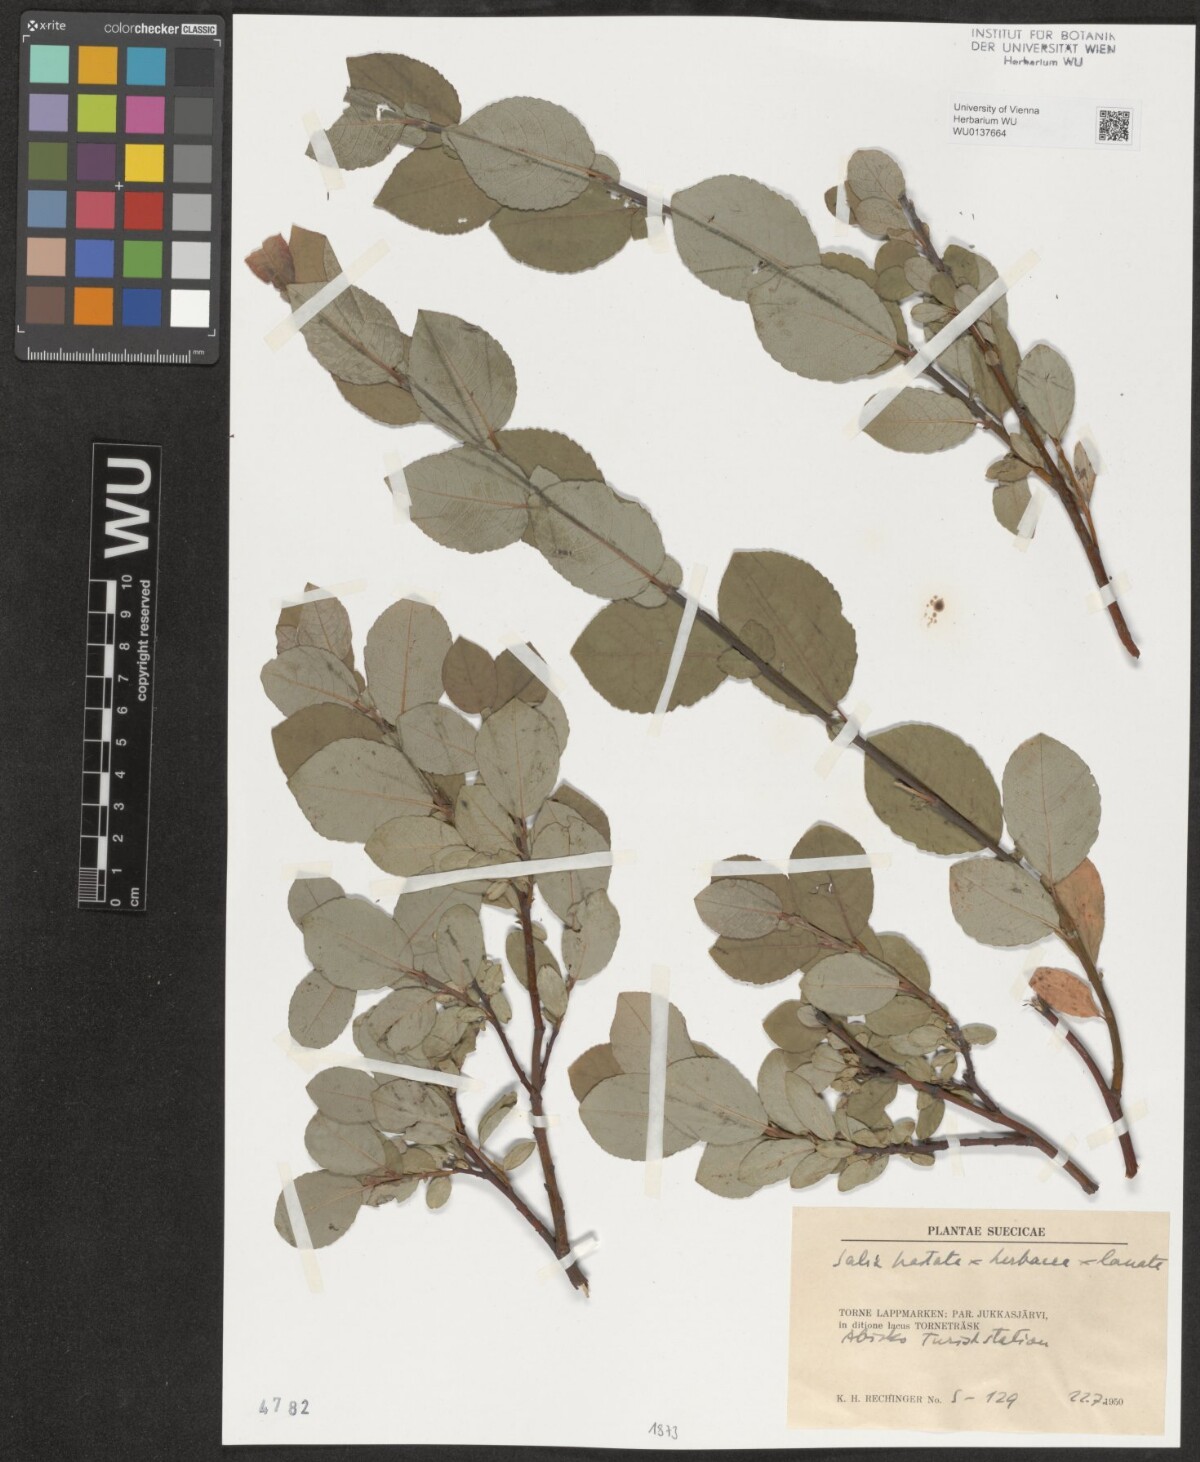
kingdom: Plantae
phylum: Tracheophyta
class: Magnoliopsida
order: Malpighiales
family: Salicaceae
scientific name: Salicaceae
